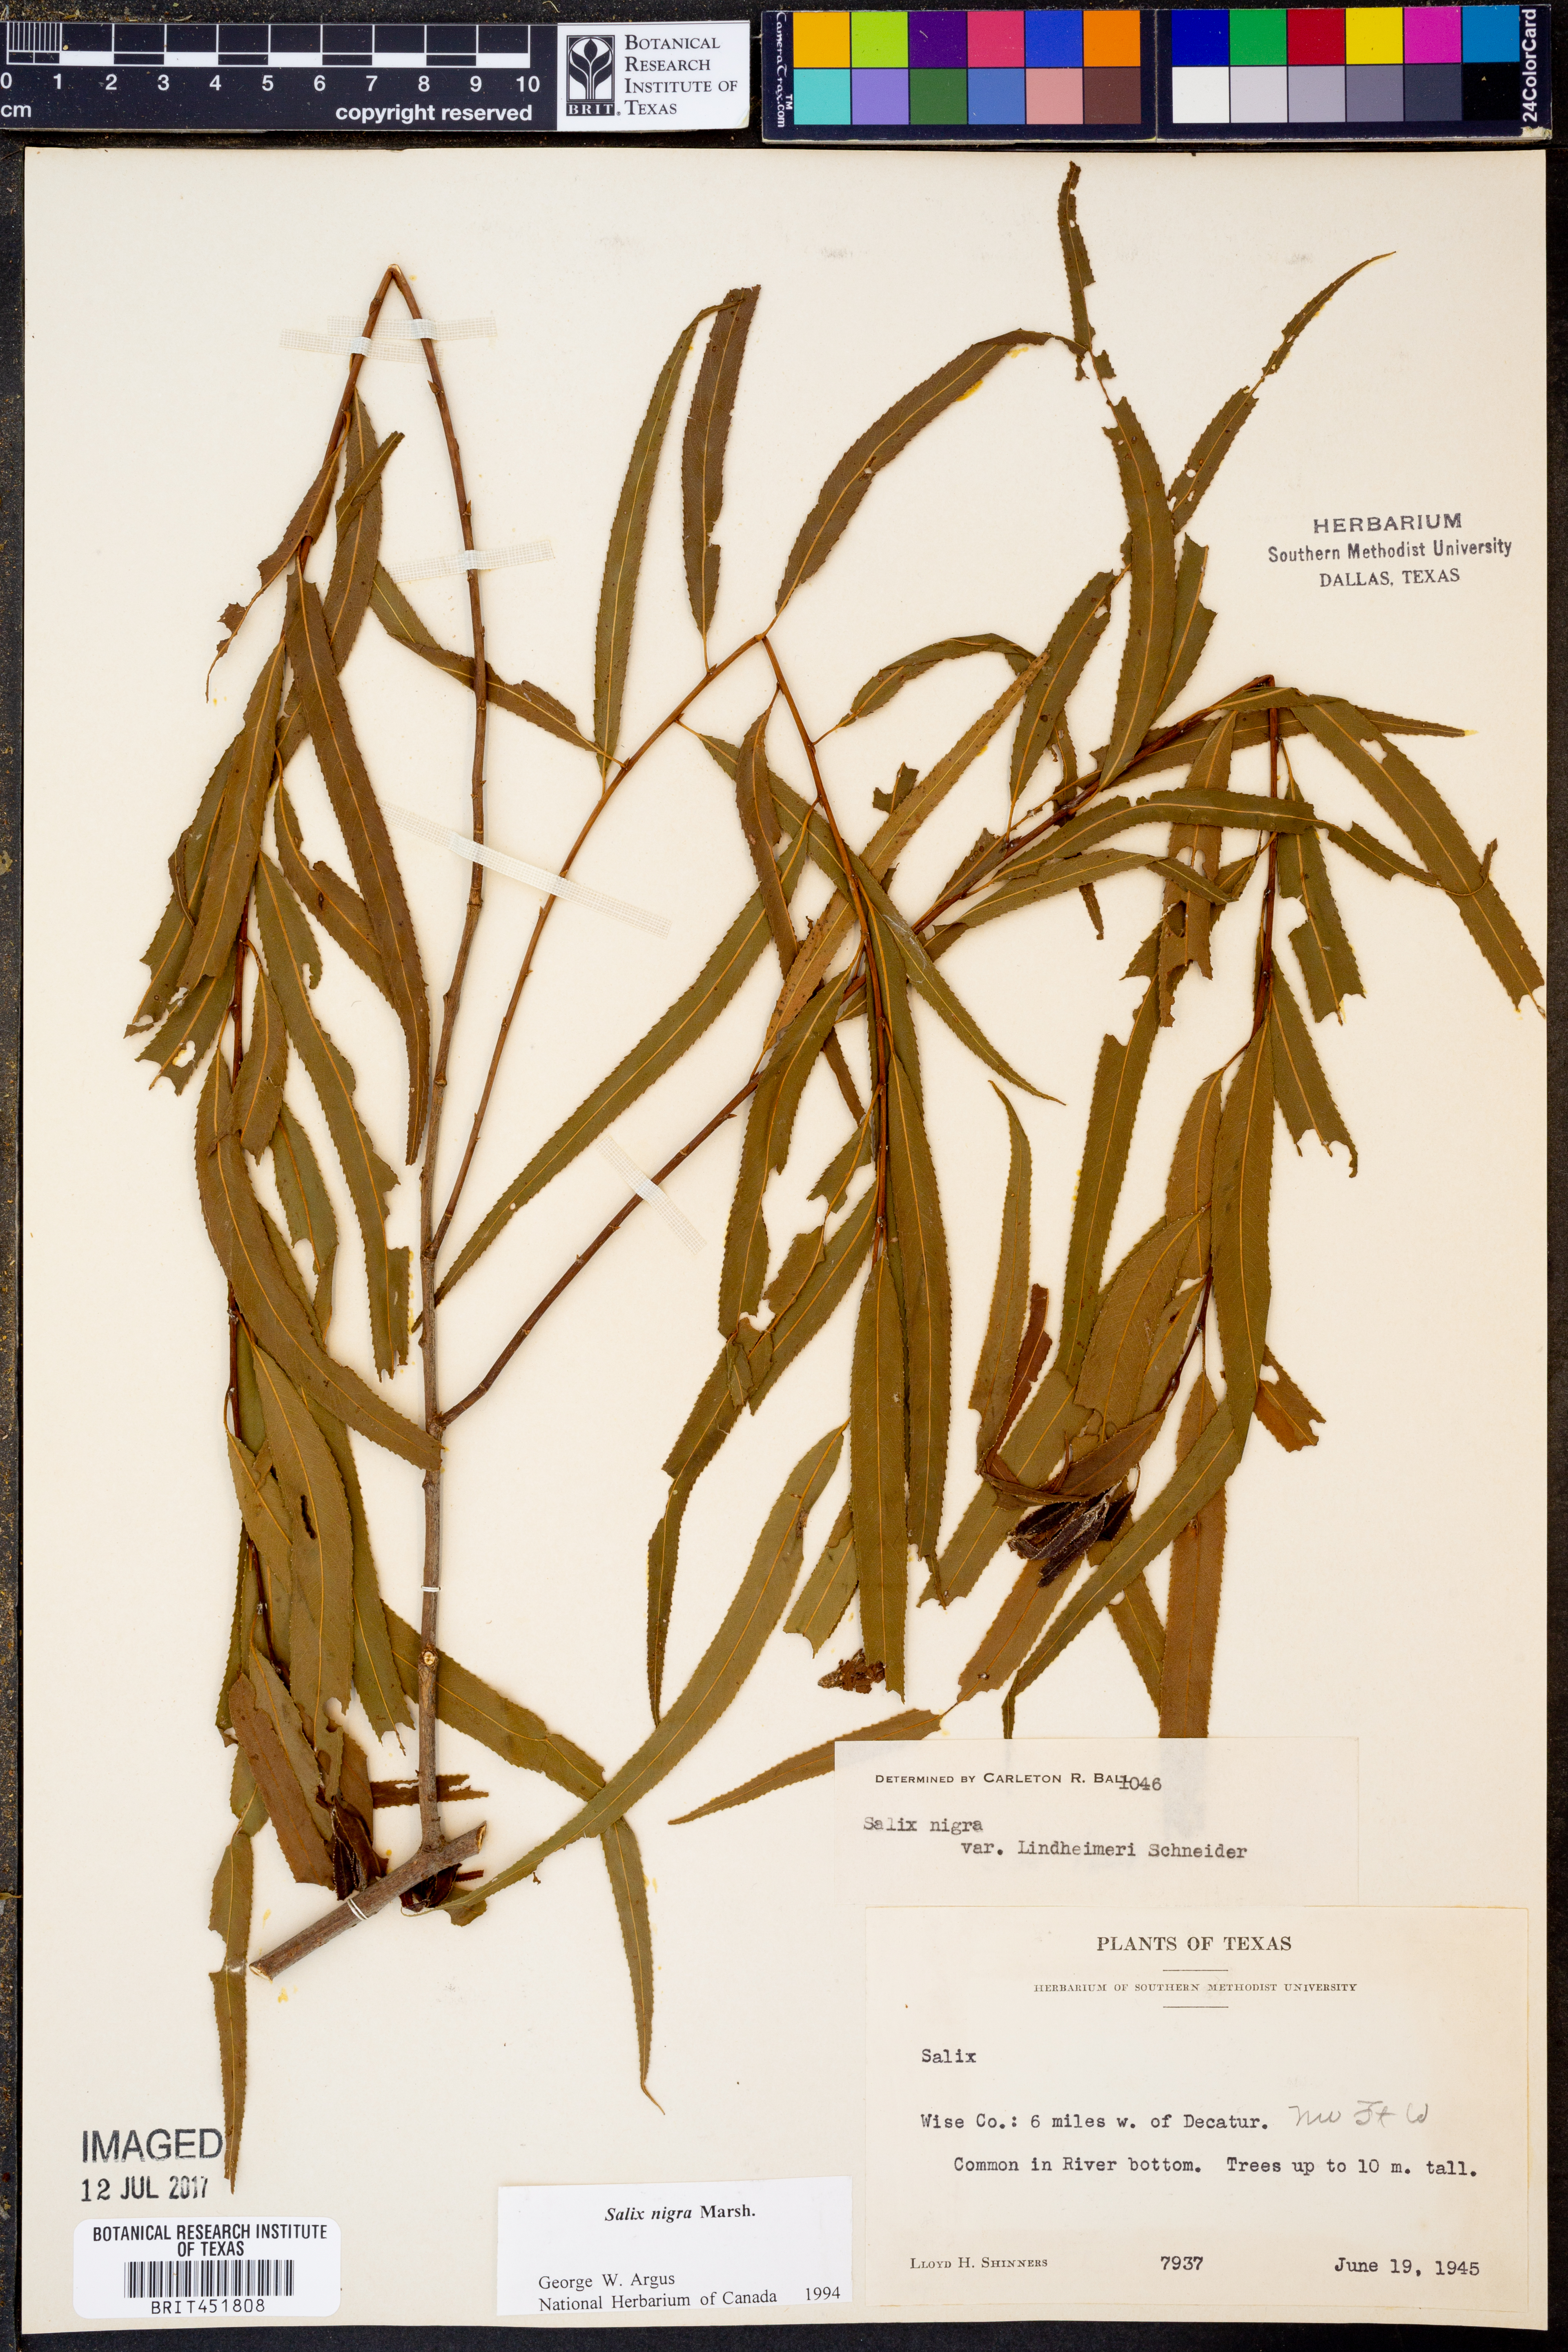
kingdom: Plantae
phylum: Tracheophyta
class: Magnoliopsida
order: Malpighiales
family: Salicaceae
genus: Salix
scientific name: Salix nigra
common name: Black willow
